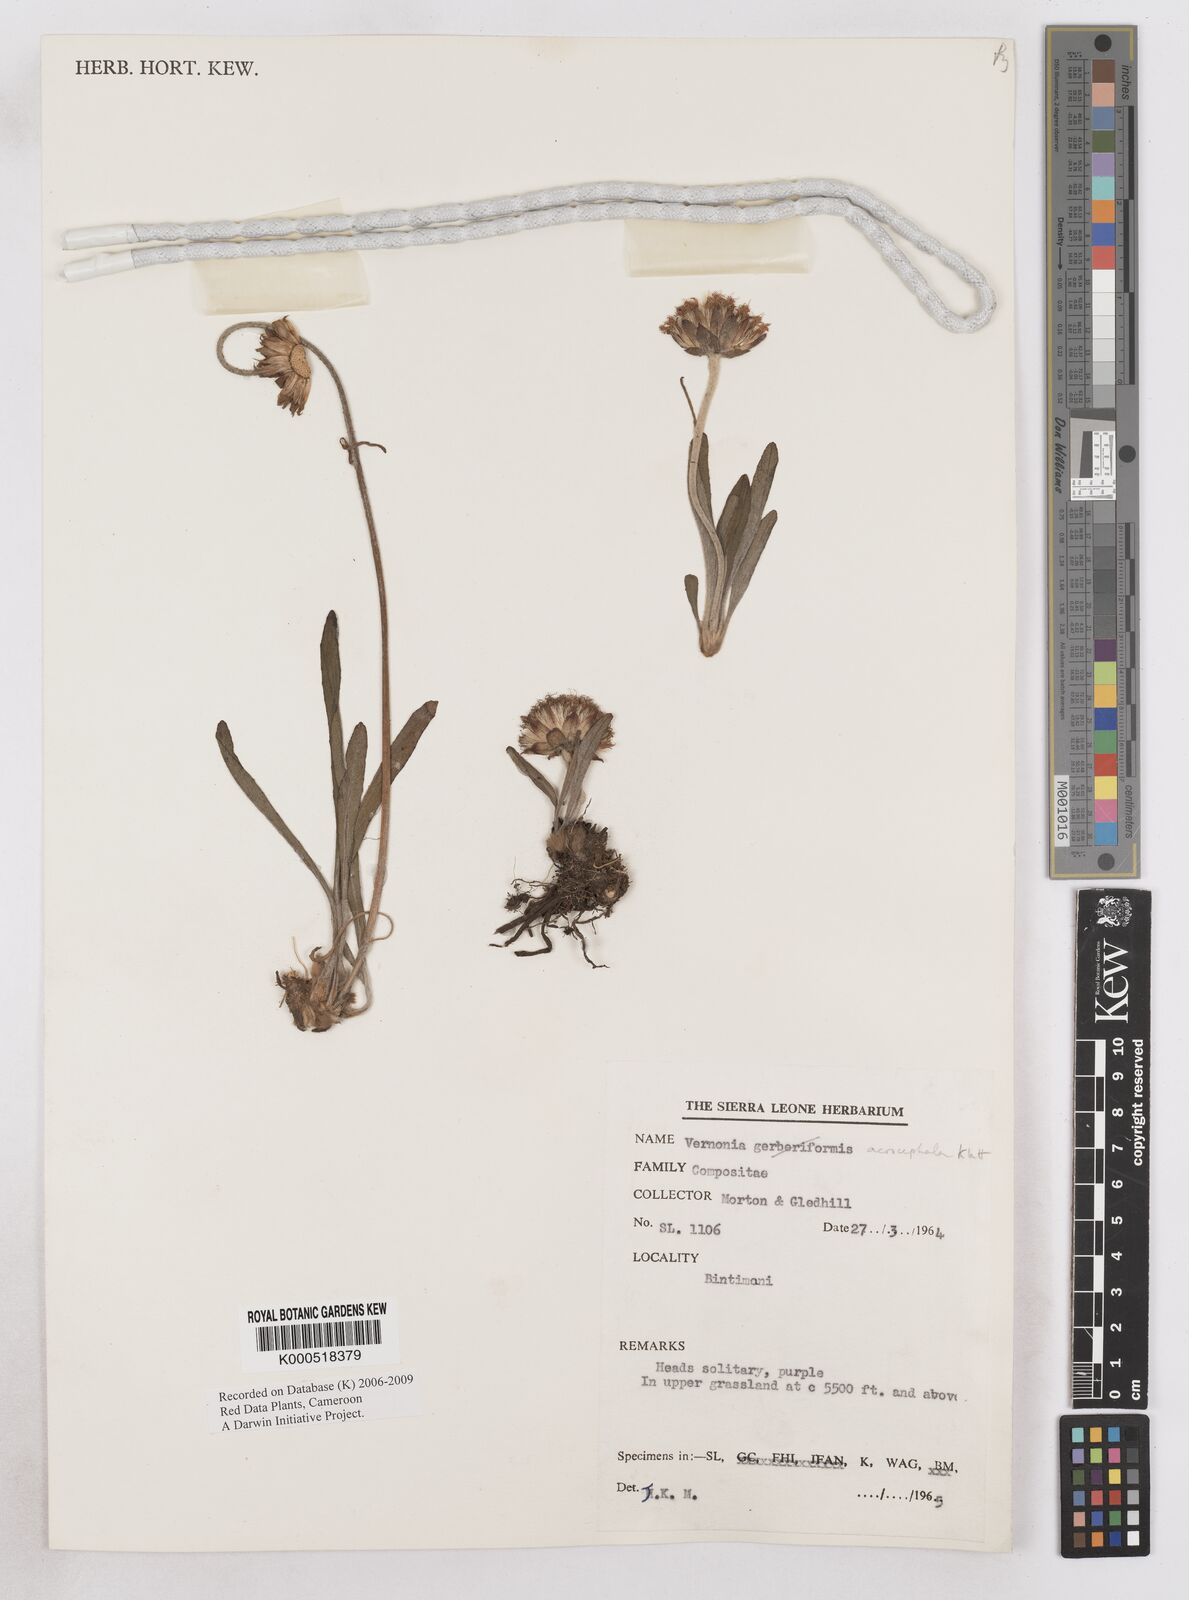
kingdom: Plantae
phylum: Tracheophyta
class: Magnoliopsida
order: Asterales
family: Asteraceae
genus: Vernonella
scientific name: Vernonella acrocephala
